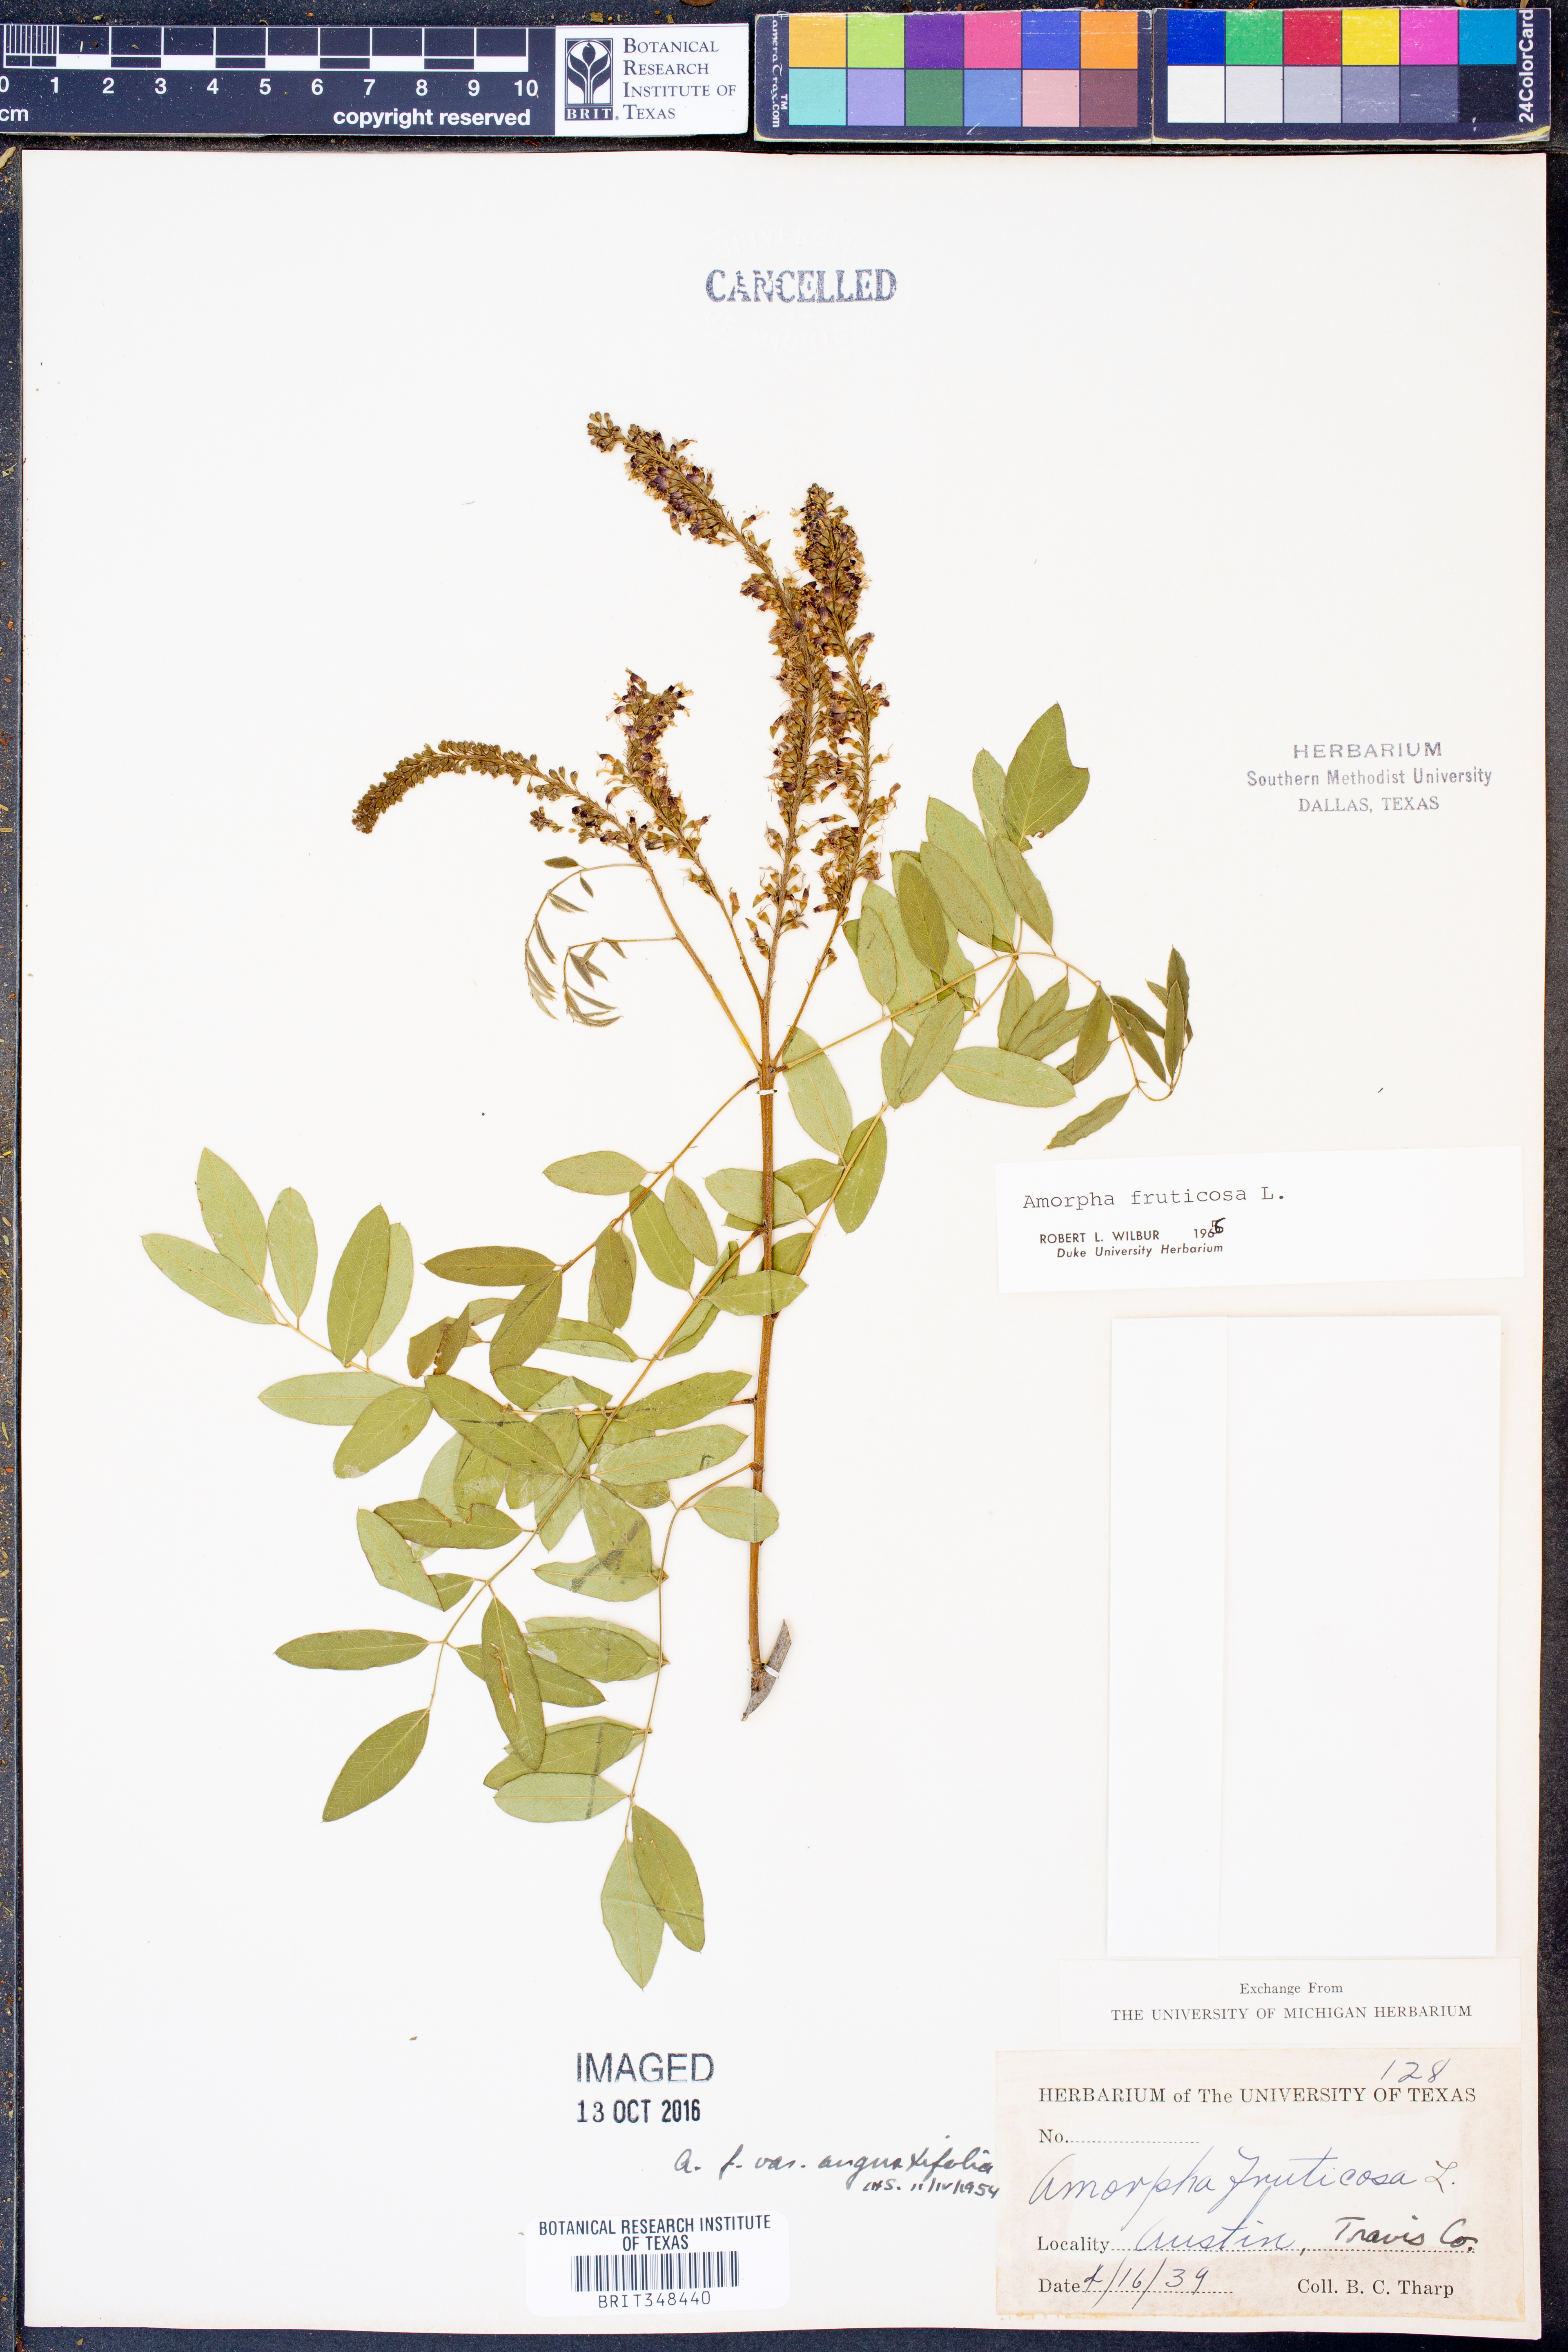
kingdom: Plantae
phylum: Tracheophyta
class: Magnoliopsida
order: Fabales
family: Fabaceae
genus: Amorpha
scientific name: Amorpha fruticosa
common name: False indigo
